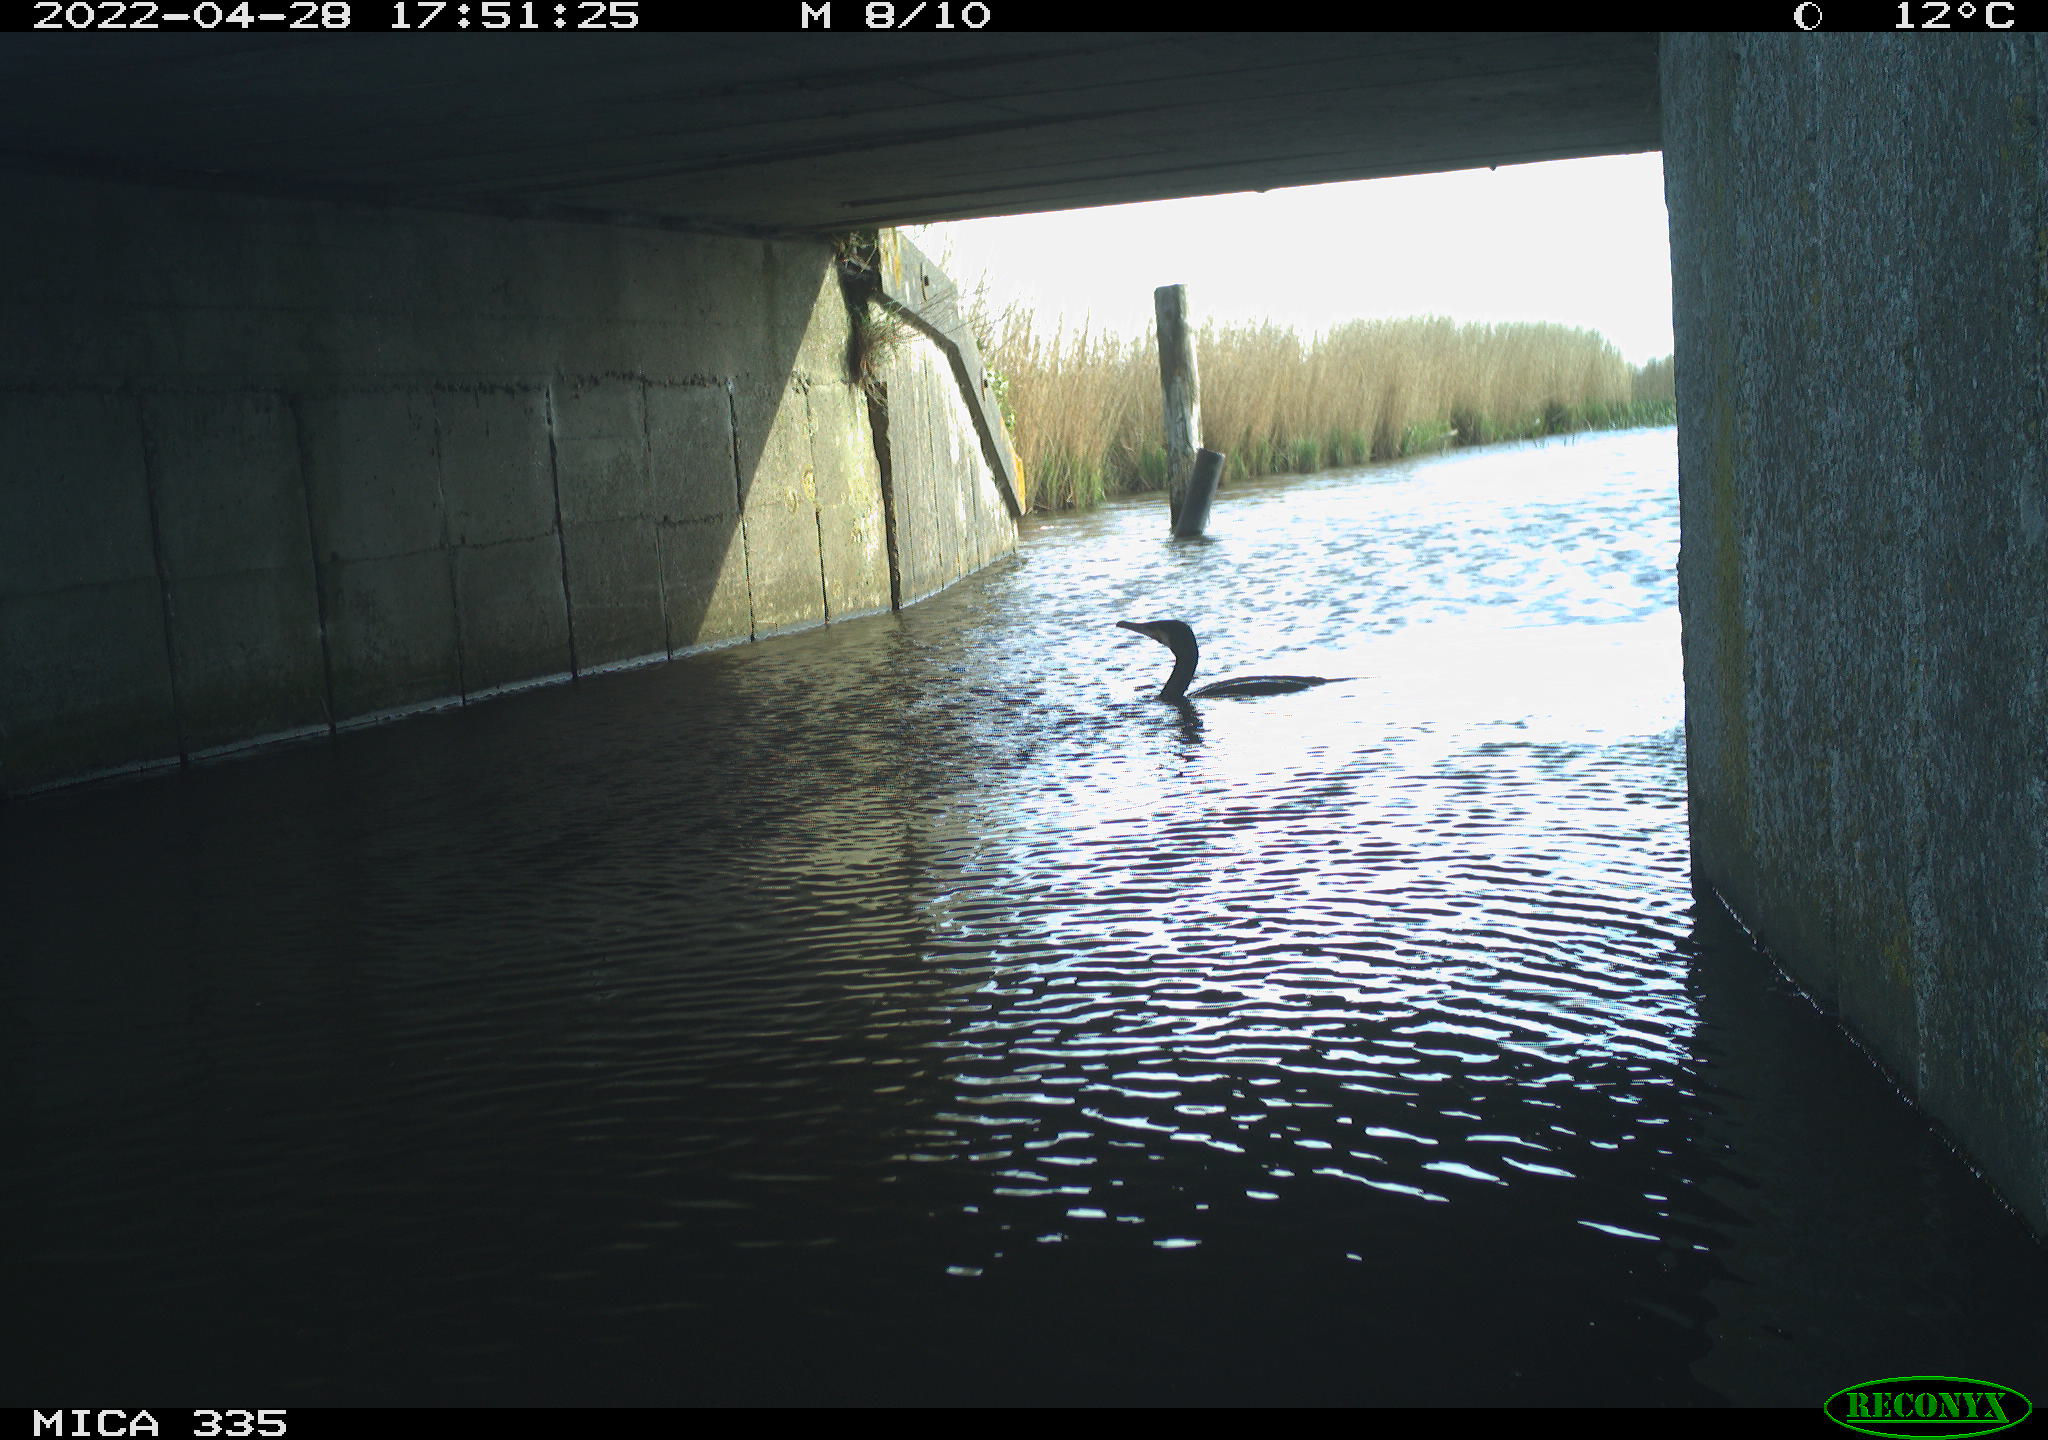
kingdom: Animalia
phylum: Chordata
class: Aves
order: Suliformes
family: Phalacrocoracidae
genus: Phalacrocorax
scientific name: Phalacrocorax carbo
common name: Great cormorant
